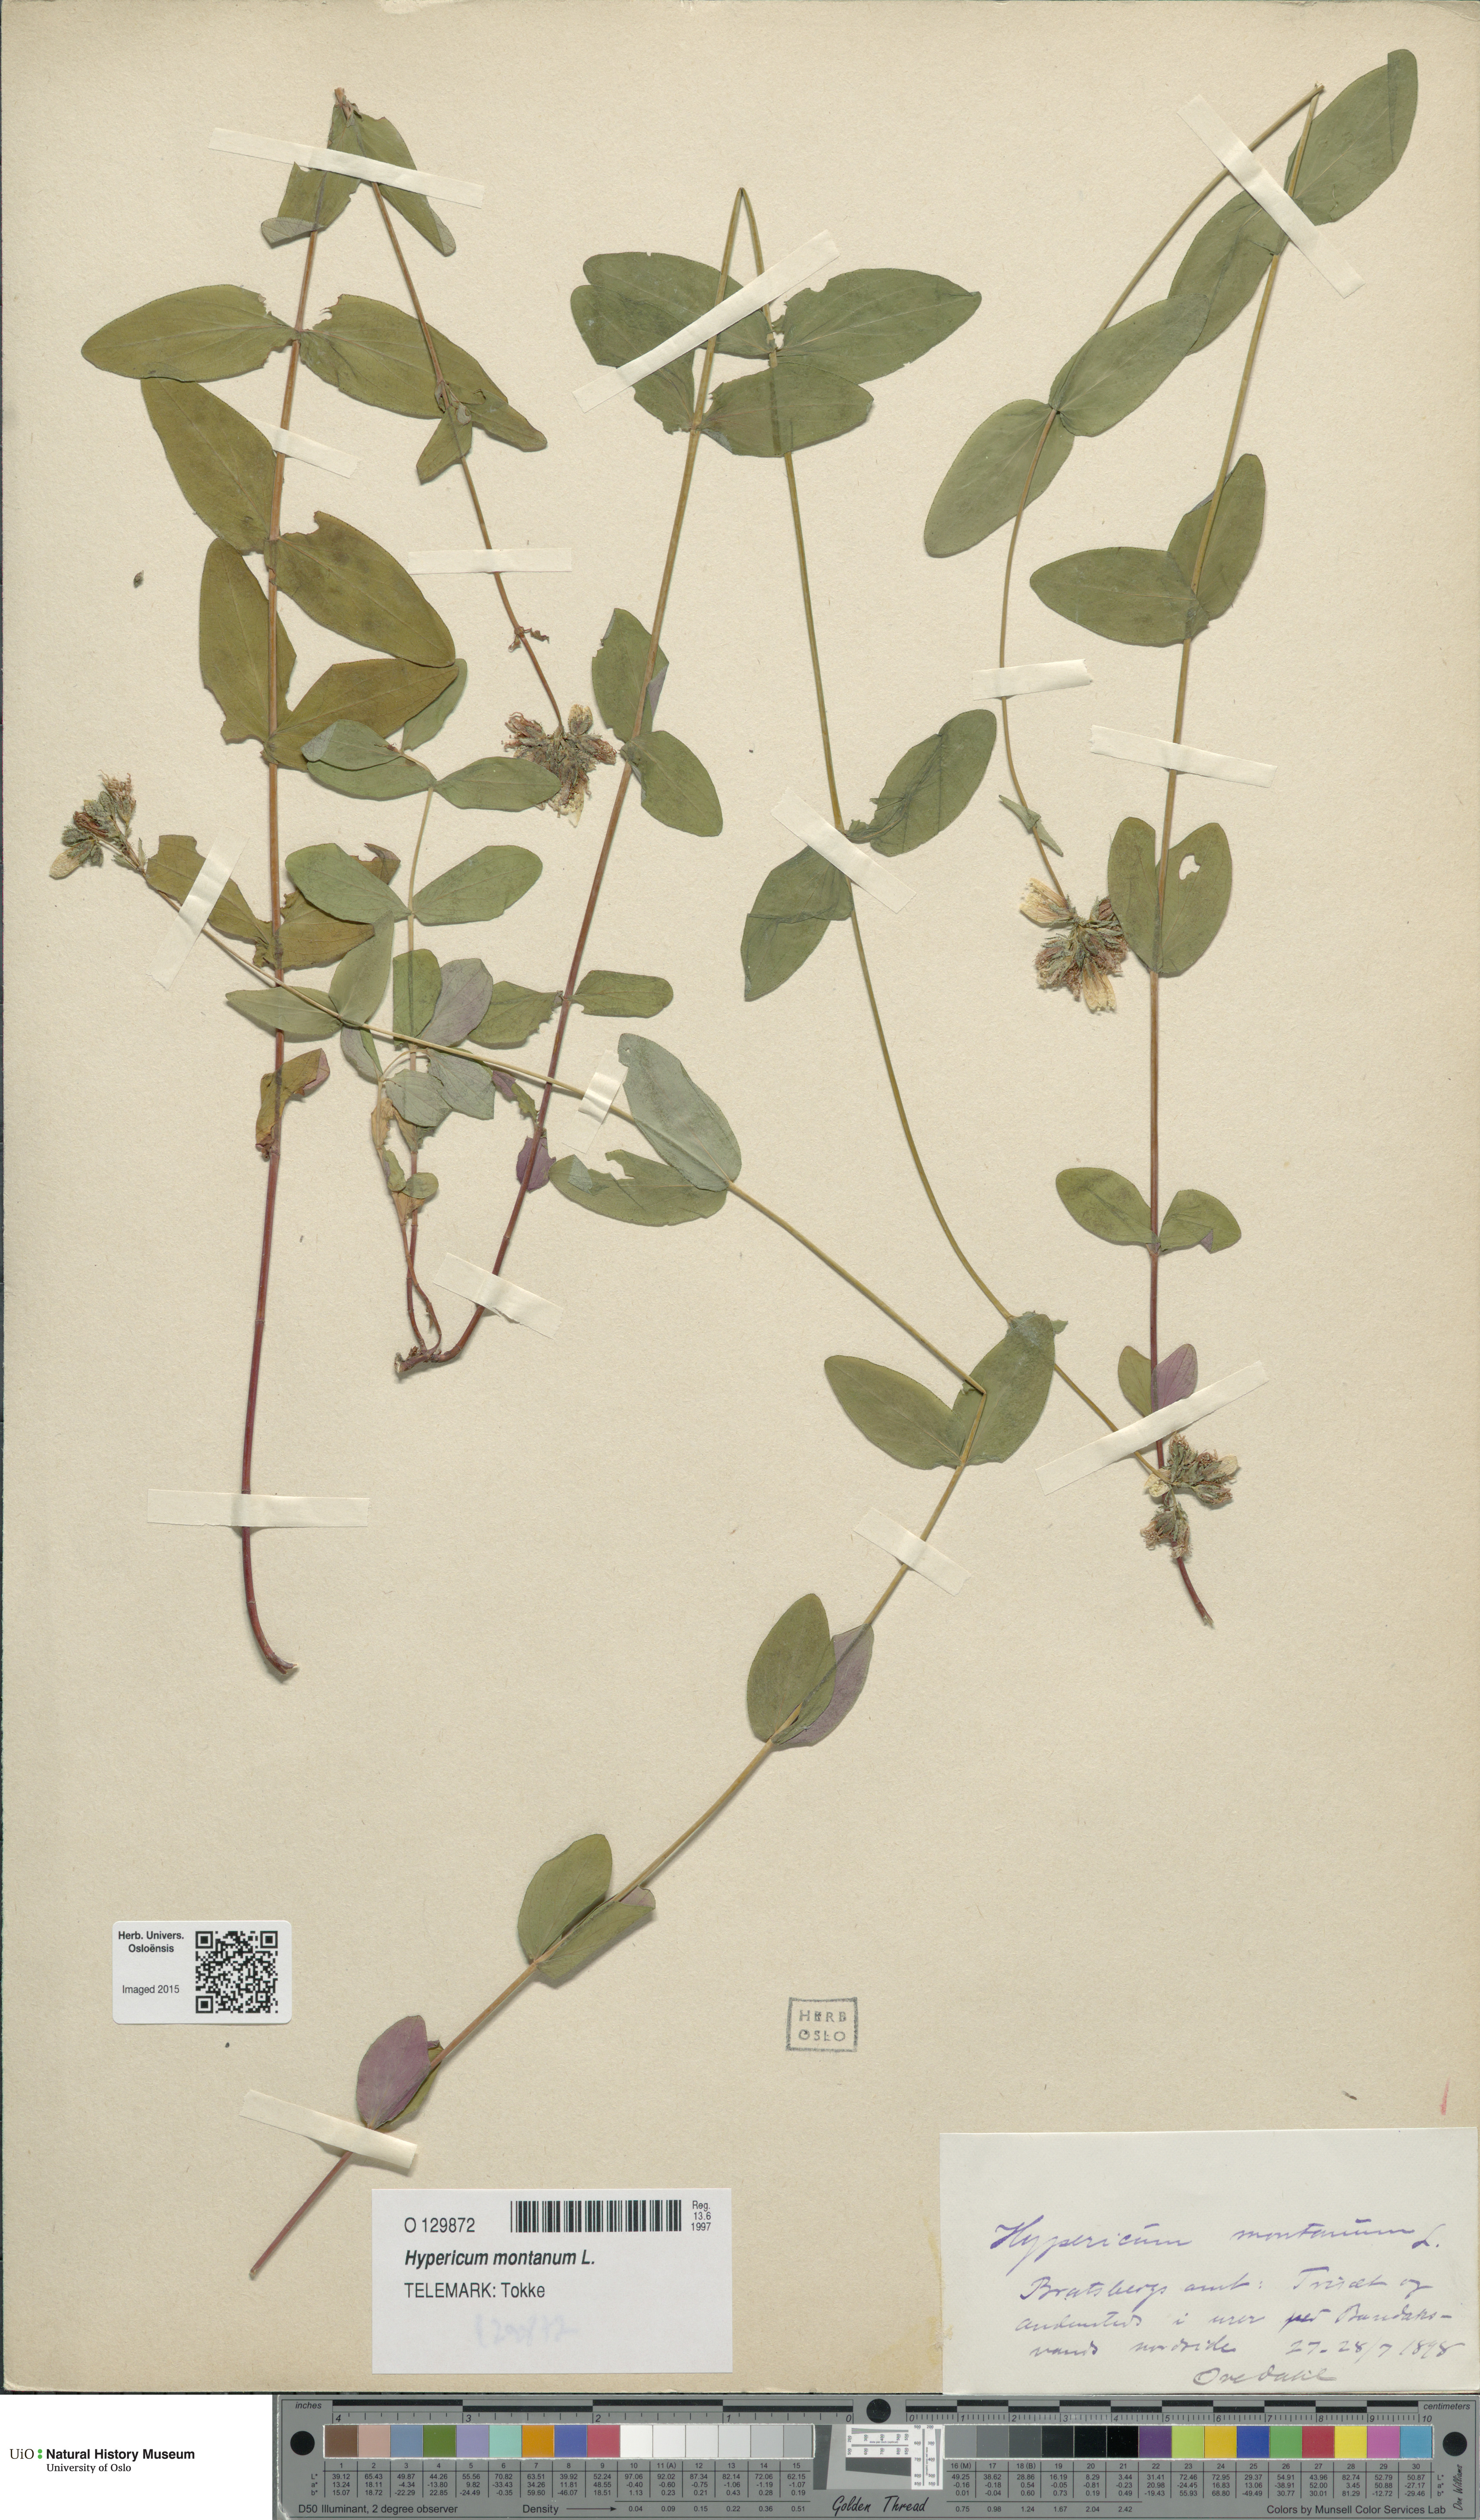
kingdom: Plantae
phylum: Tracheophyta
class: Magnoliopsida
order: Malpighiales
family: Hypericaceae
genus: Hypericum
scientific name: Hypericum montanum
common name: Pale st. john's-wort
